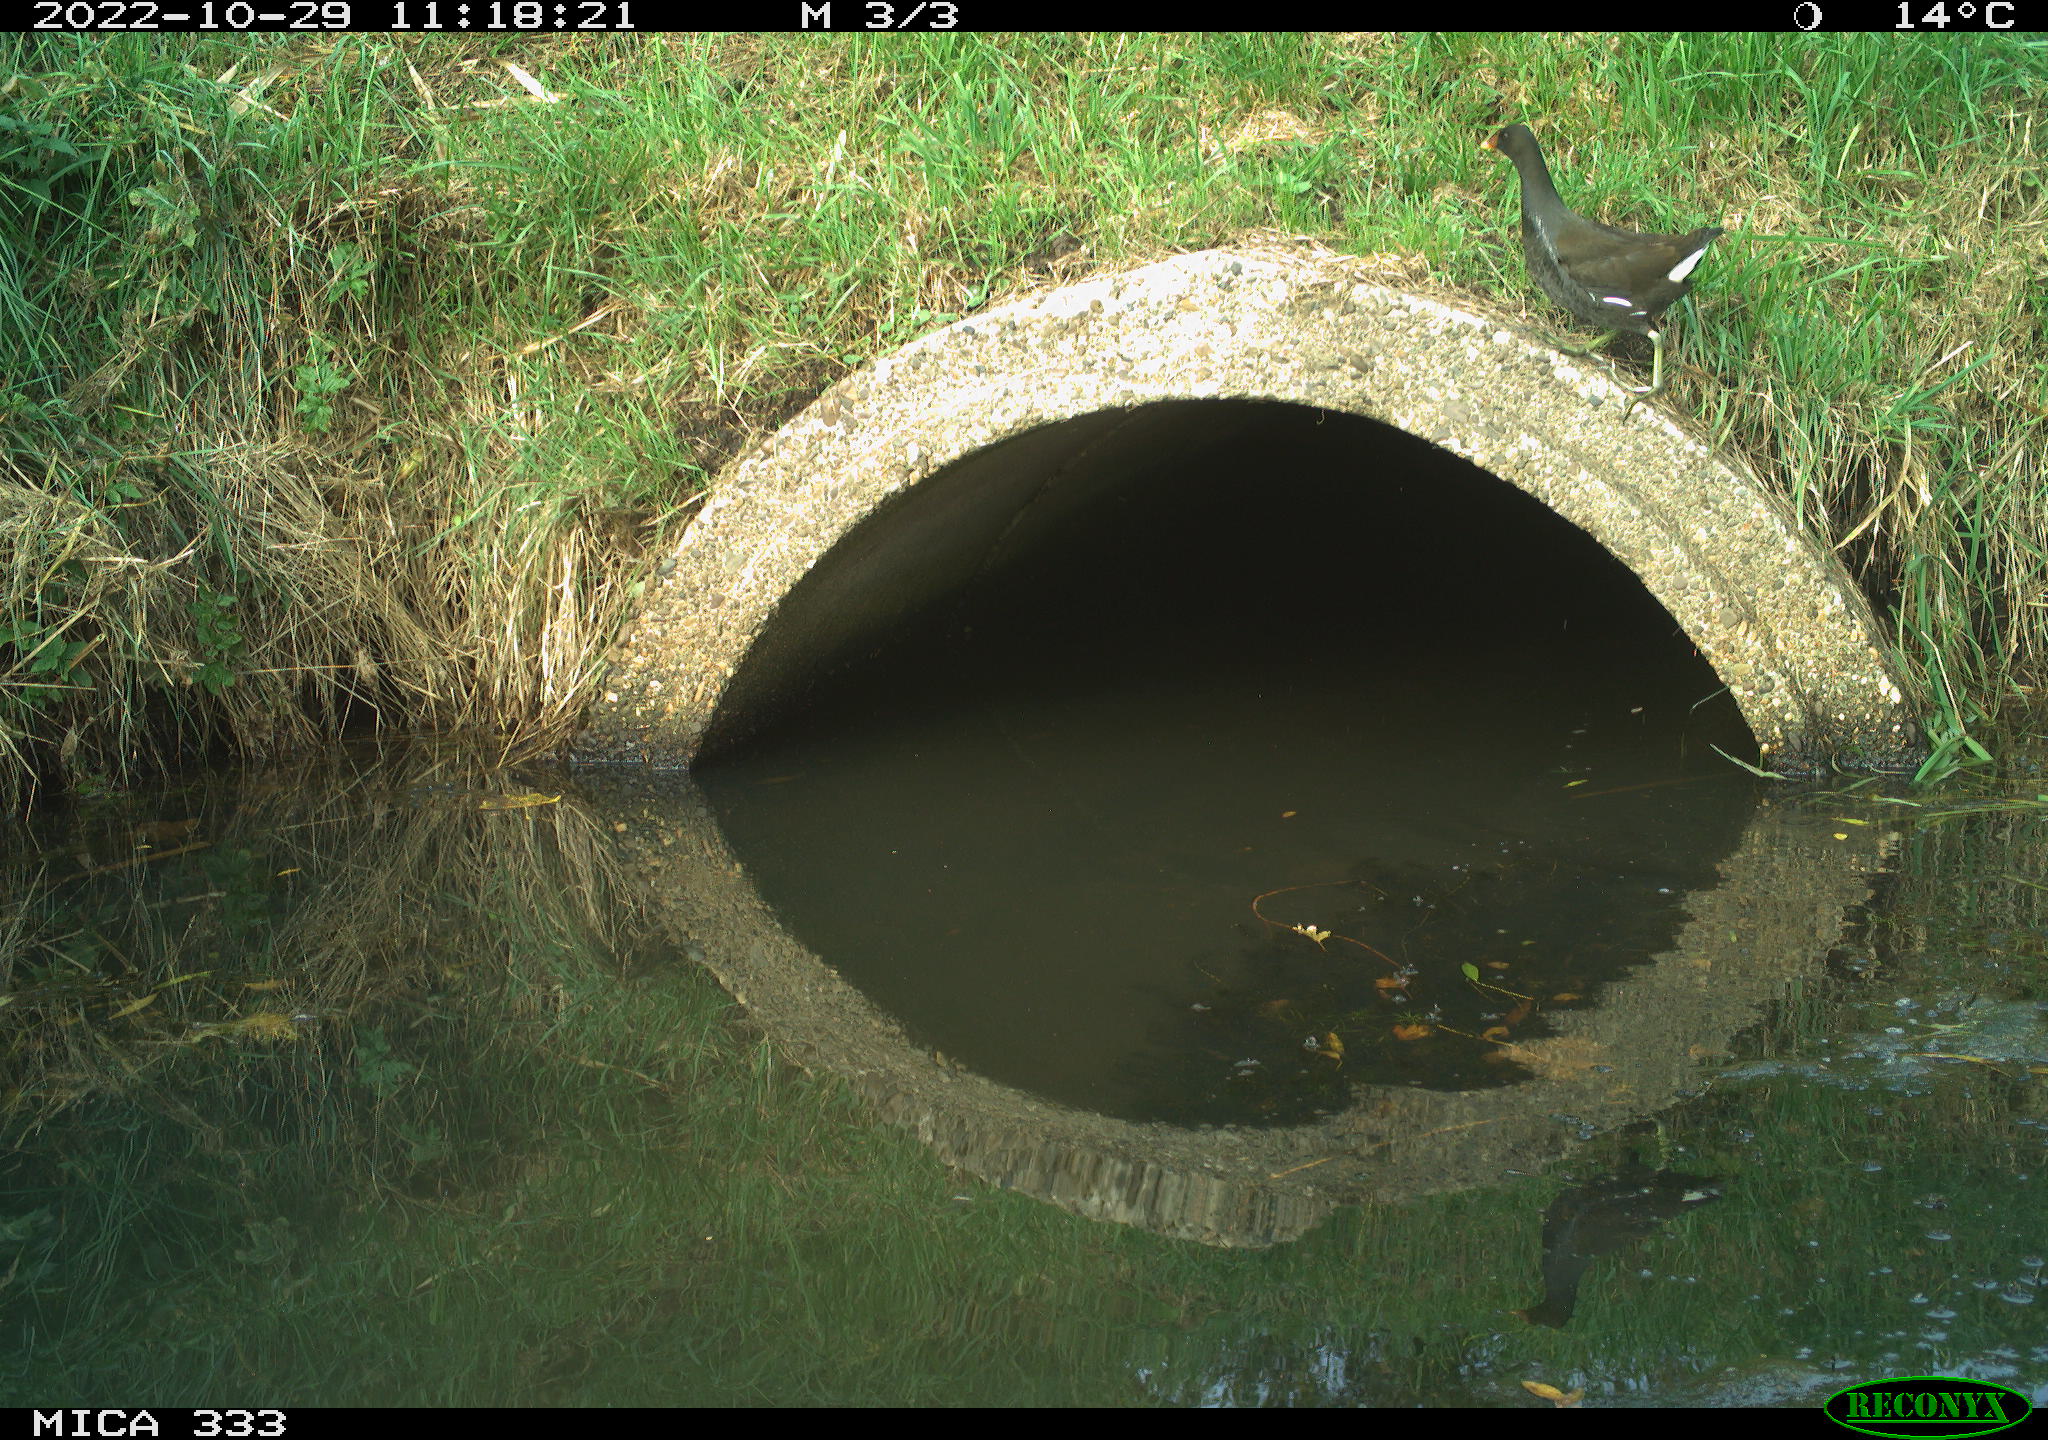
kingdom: Animalia
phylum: Chordata
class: Aves
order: Gruiformes
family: Rallidae
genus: Gallinula
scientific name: Gallinula chloropus
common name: Common moorhen
